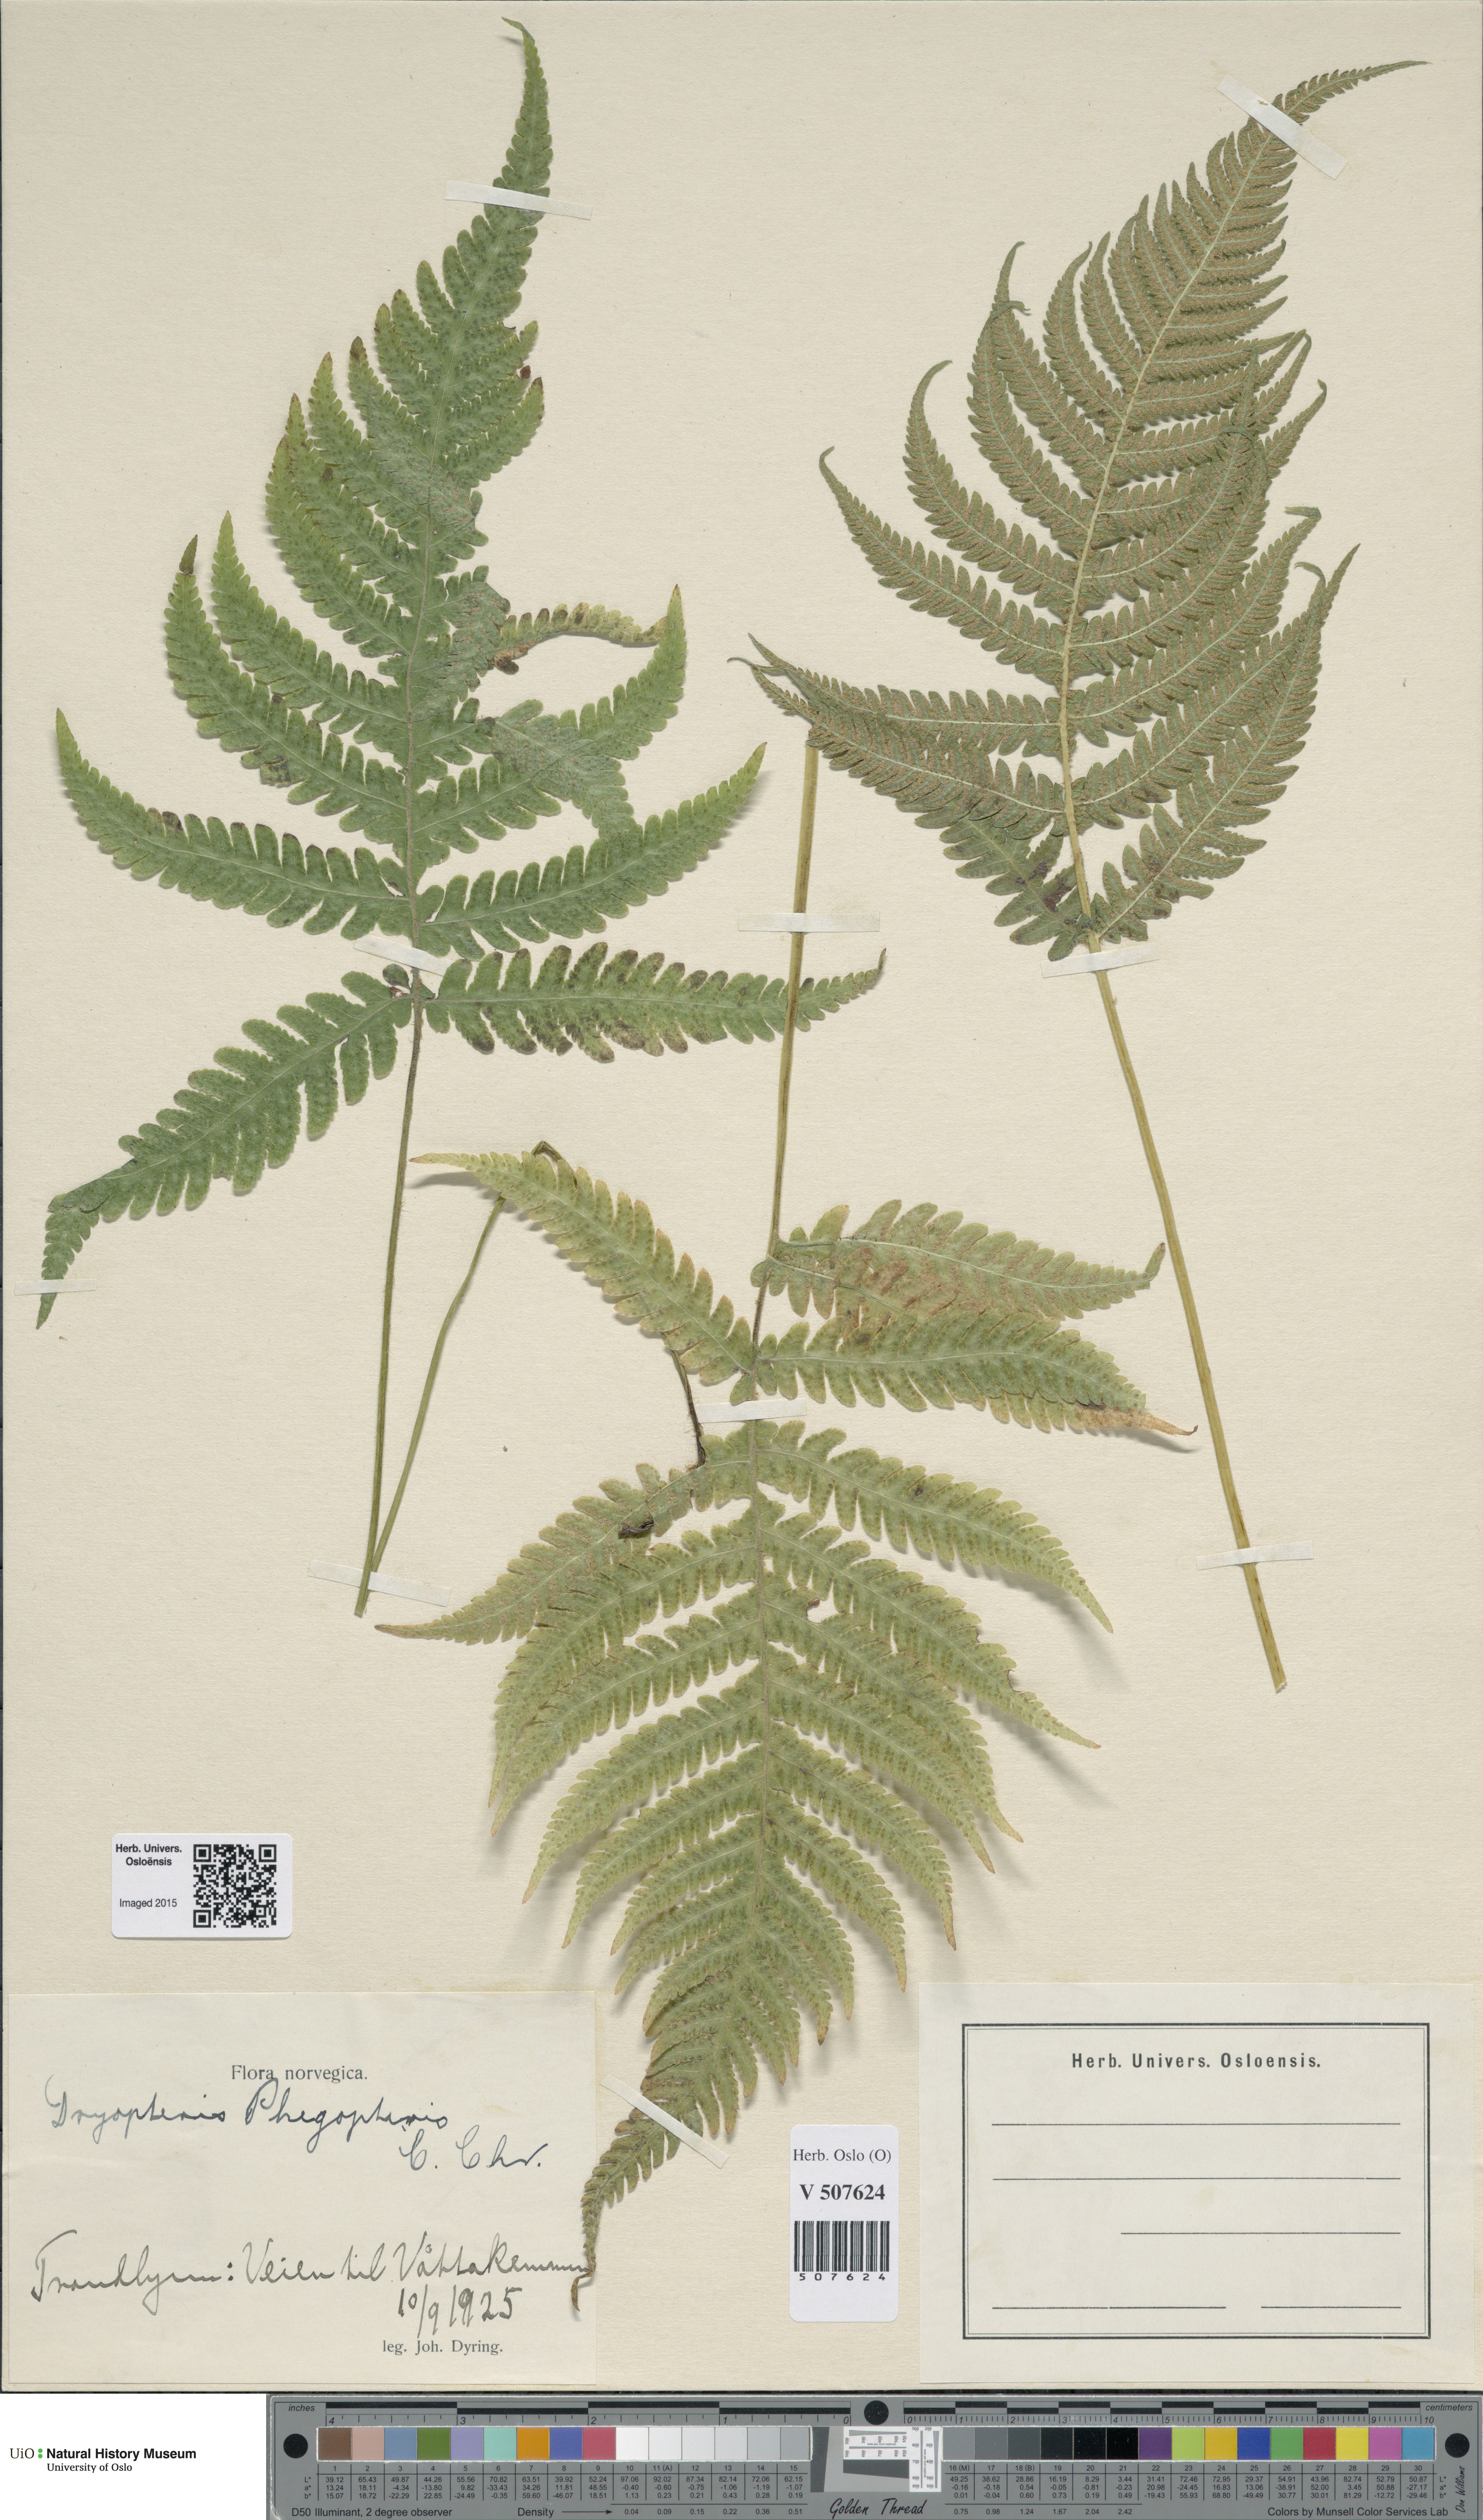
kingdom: Plantae
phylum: Tracheophyta
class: Polypodiopsida
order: Polypodiales
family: Thelypteridaceae
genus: Phegopteris
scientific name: Phegopteris connectilis
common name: Beech fern
